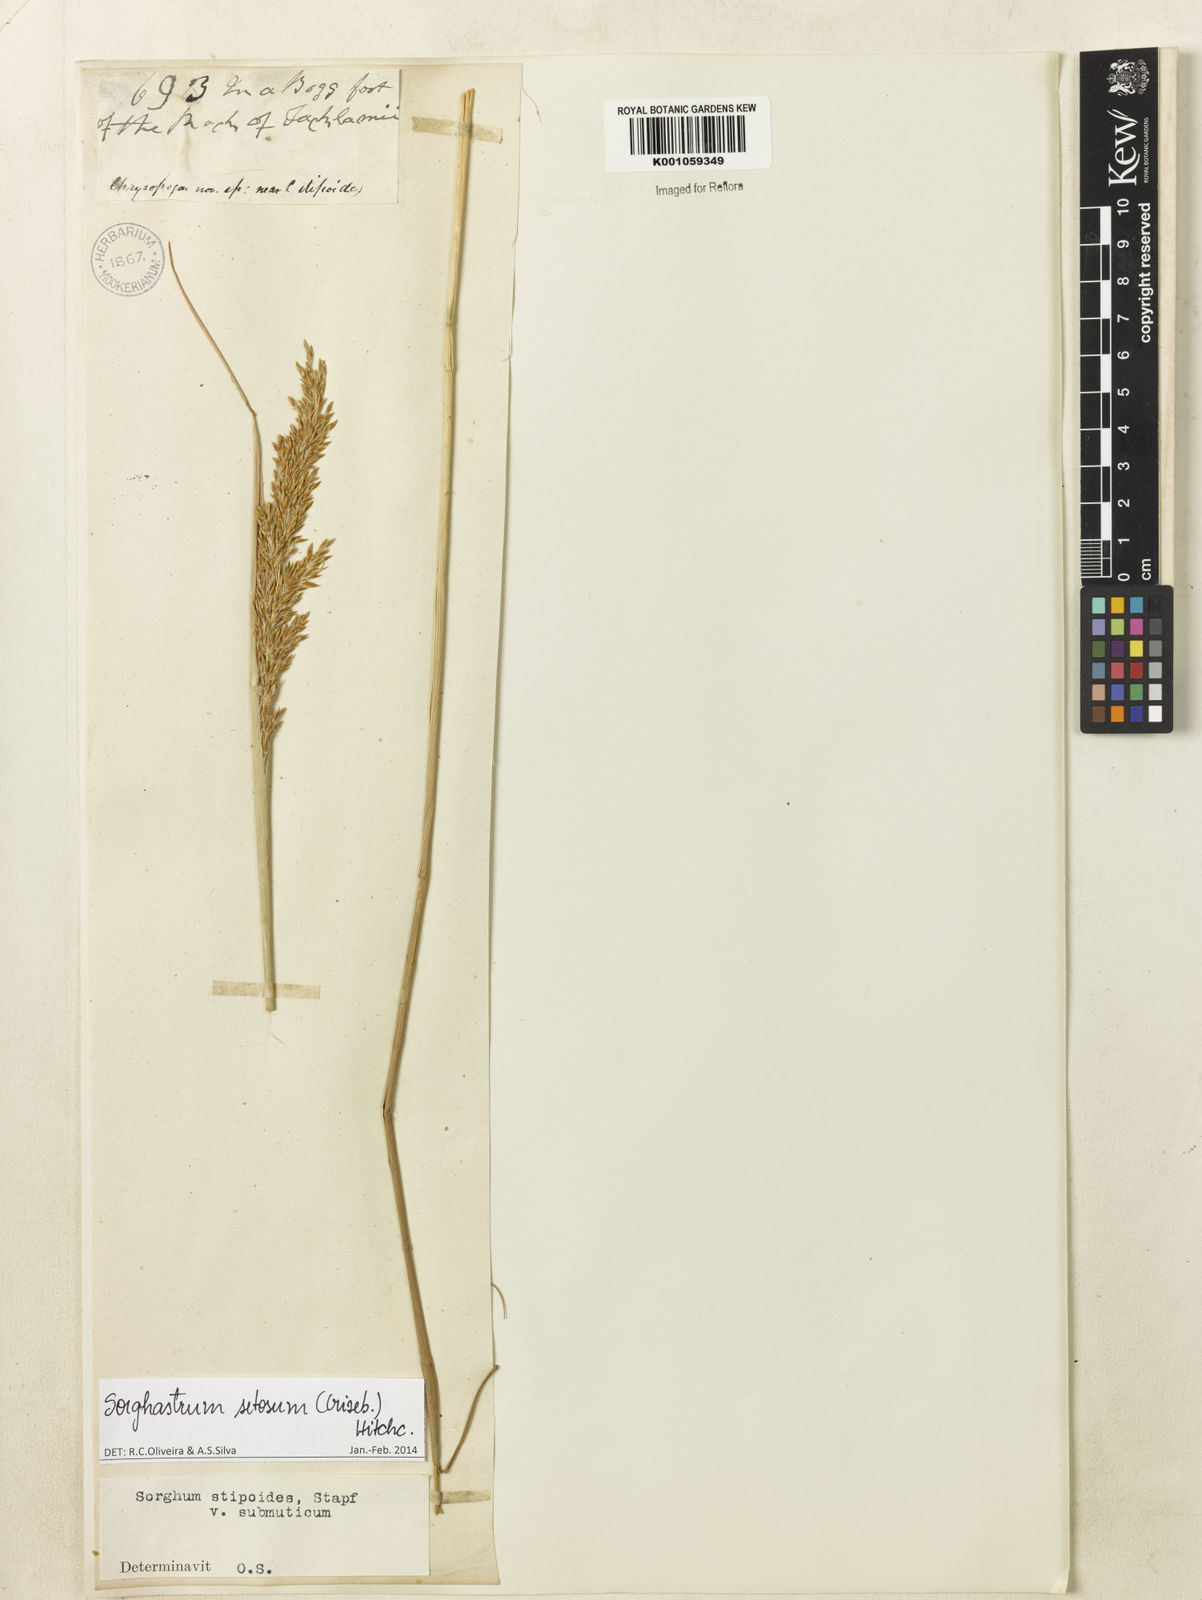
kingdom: Plantae
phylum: Tracheophyta
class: Liliopsida
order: Poales
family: Poaceae
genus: Sorghastrum
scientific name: Sorghastrum setosum
